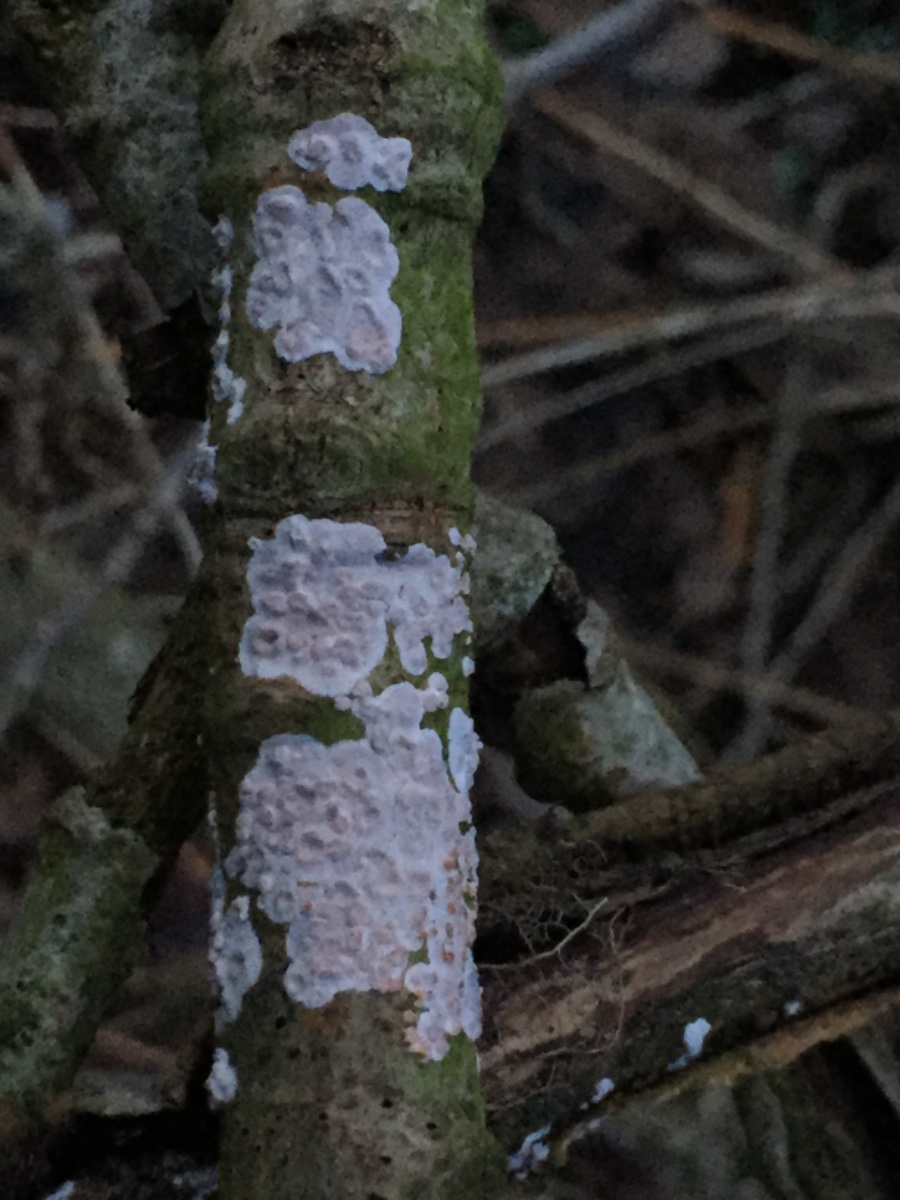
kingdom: Fungi
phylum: Basidiomycota
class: Agaricomycetes
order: Russulales
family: Peniophoraceae
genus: Peniophora
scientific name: Peniophora polygonia
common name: polygon-voksskind
